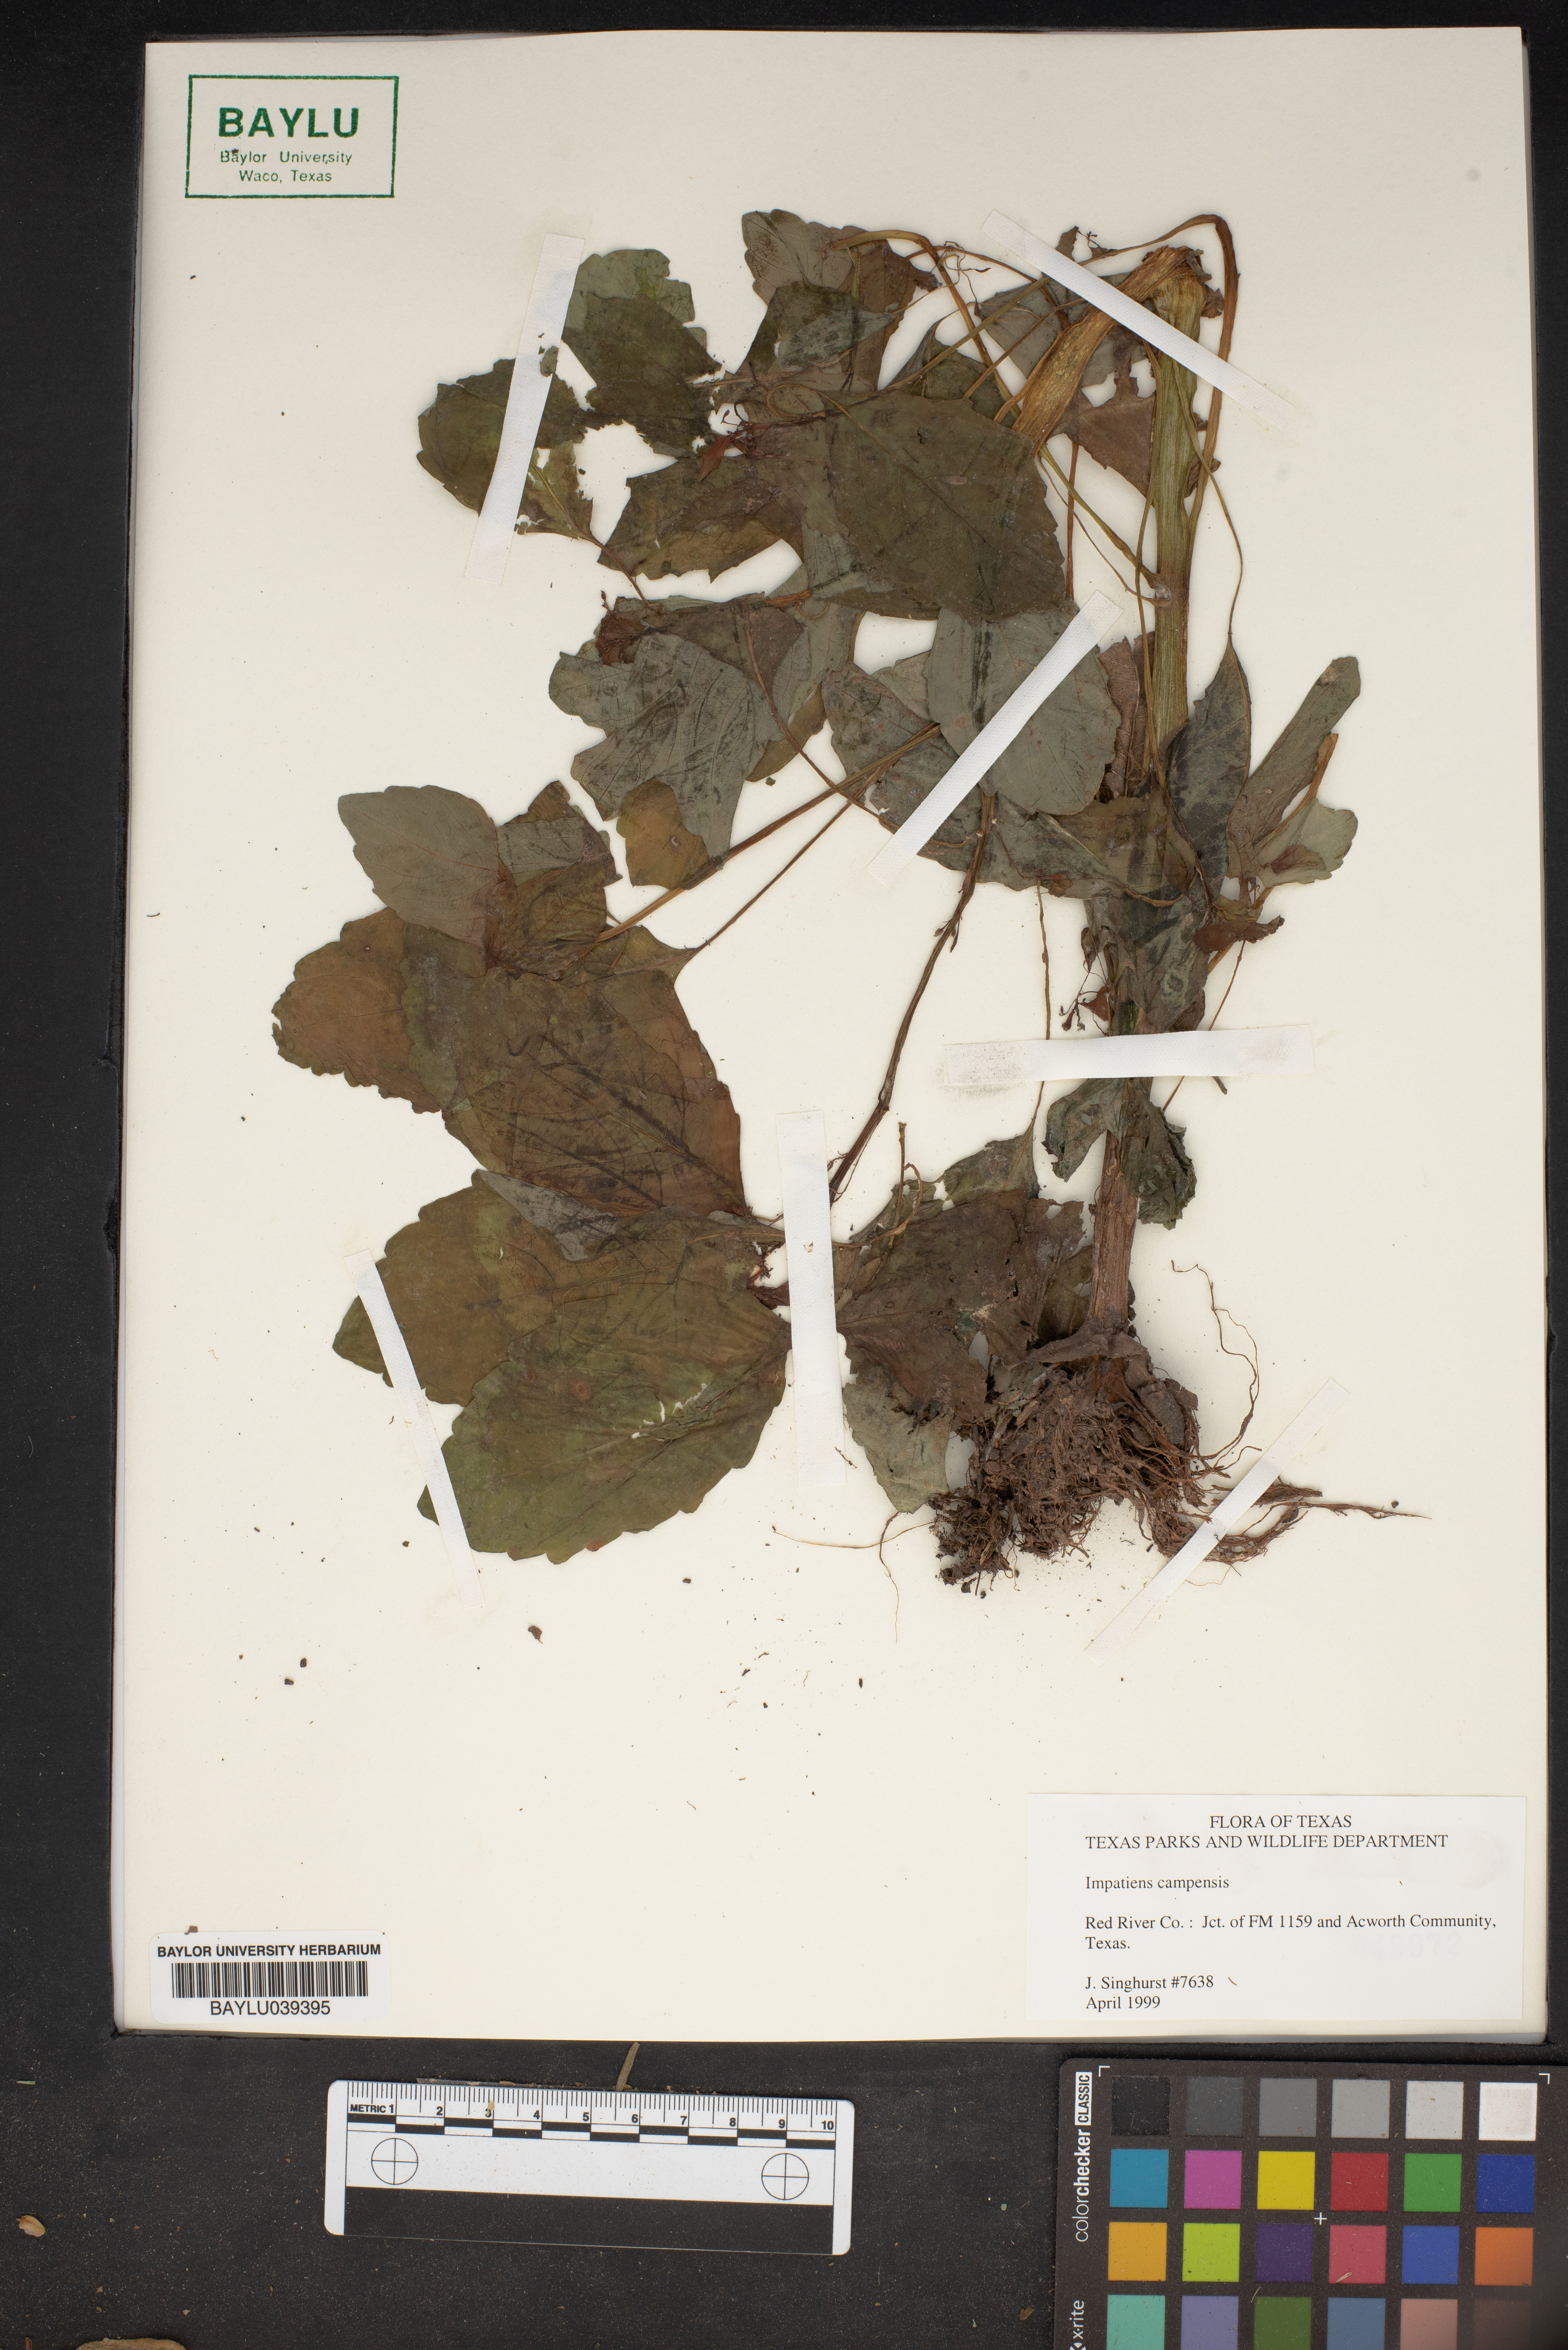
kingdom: Plantae
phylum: Tracheophyta
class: Magnoliopsida
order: Ericales
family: Balsaminaceae
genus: Impatiens
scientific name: Impatiens capensis
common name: Orange balsam
